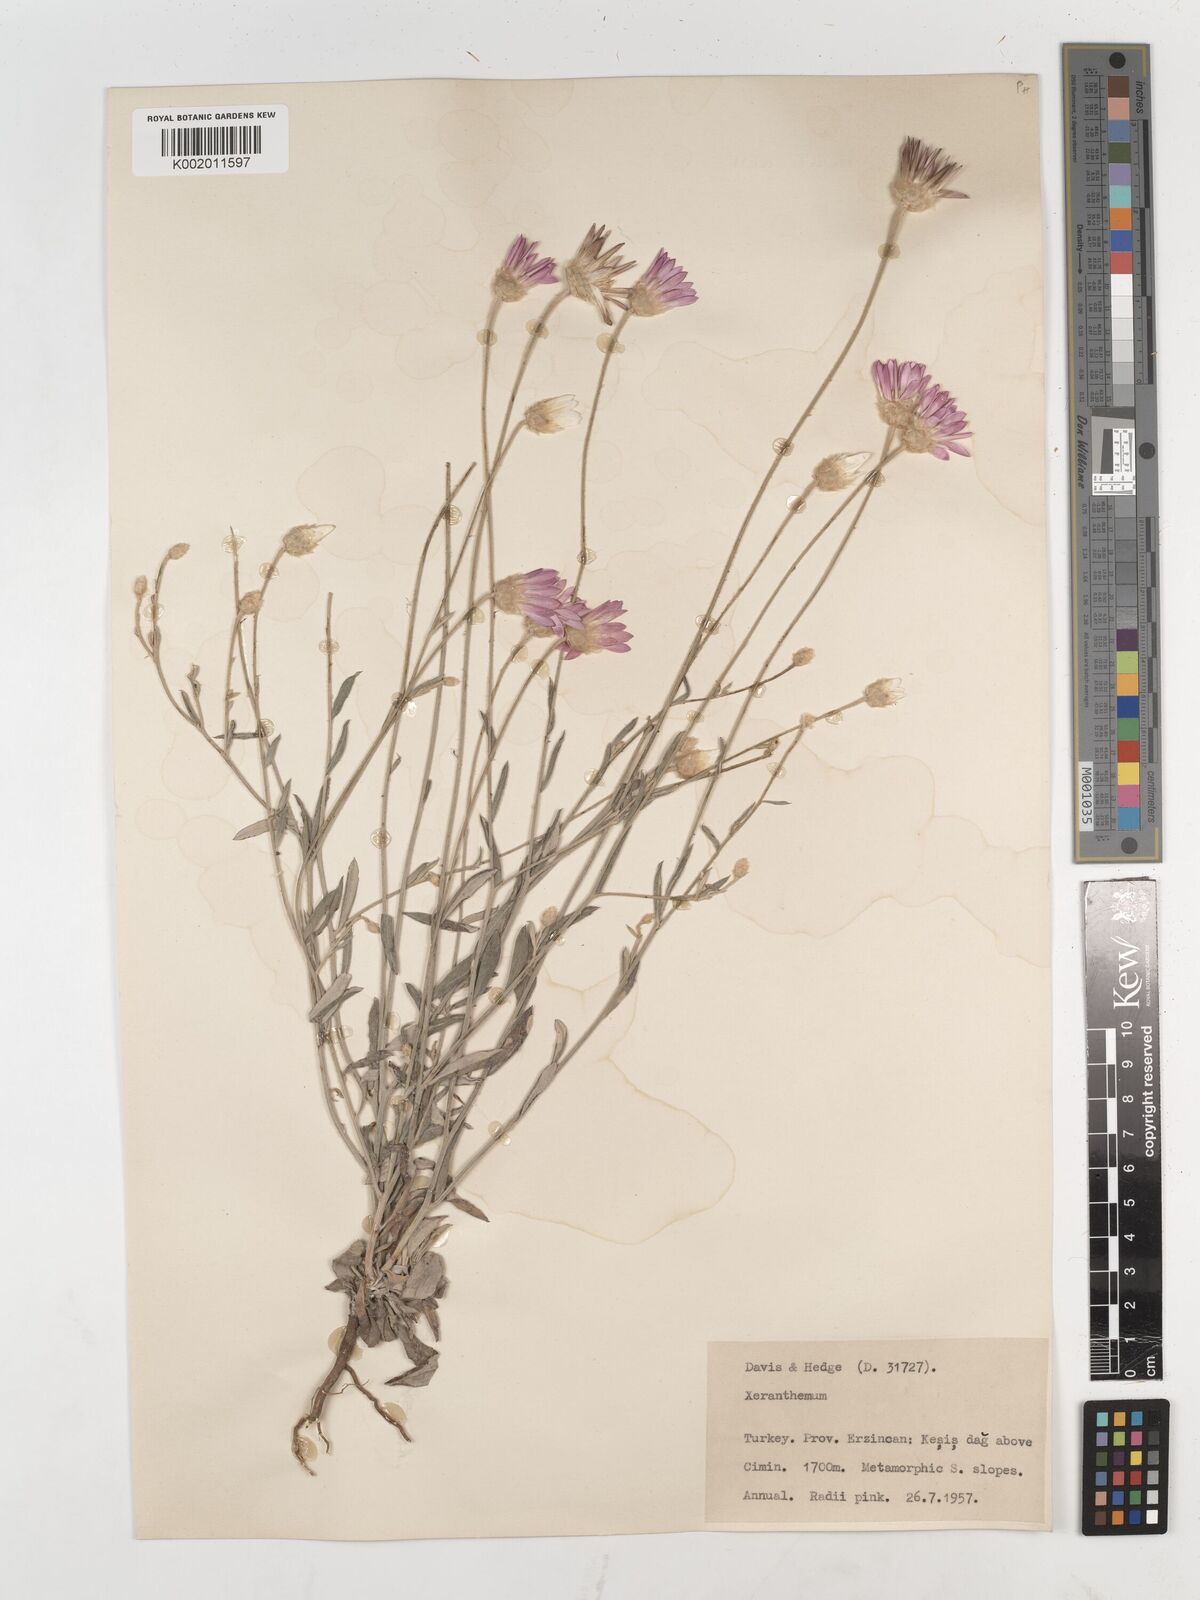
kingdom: Plantae
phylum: Tracheophyta
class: Magnoliopsida
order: Asterales
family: Asteraceae
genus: Xeranthemum
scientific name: Xeranthemum annuum
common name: Immortelle
